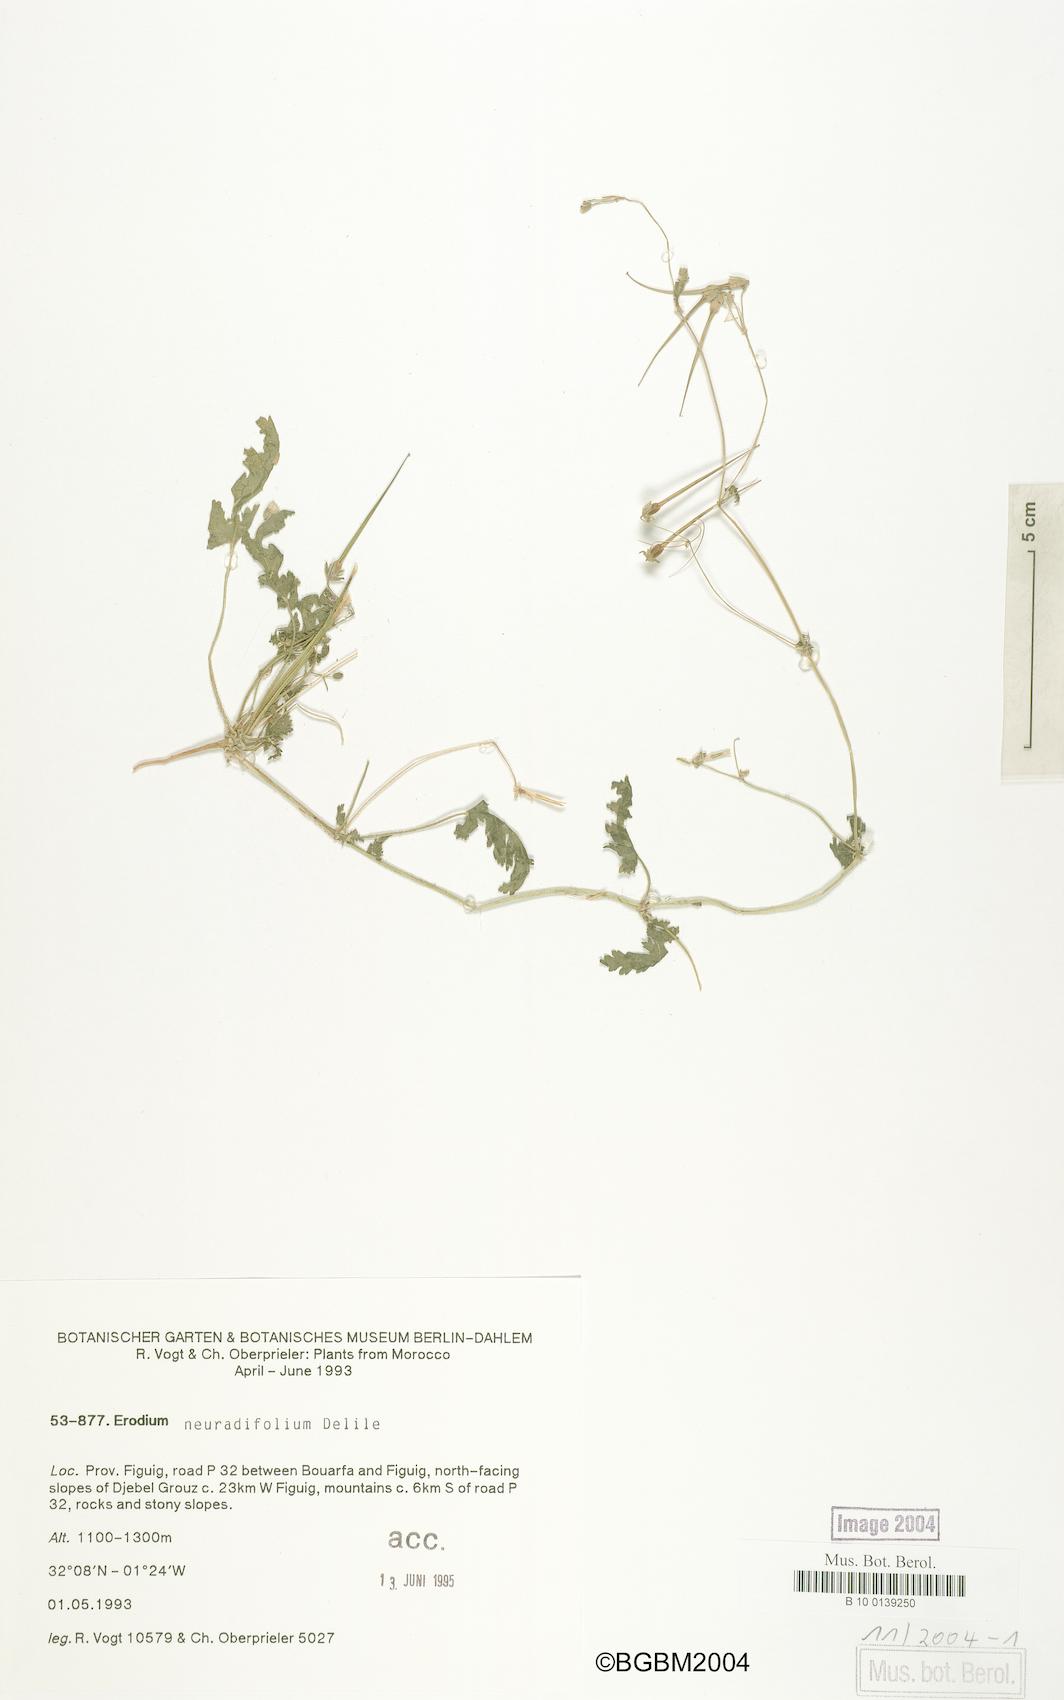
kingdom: Plantae
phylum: Tracheophyta
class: Magnoliopsida
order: Geraniales
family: Geraniaceae
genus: Erodium
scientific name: Erodium neuradifolium
